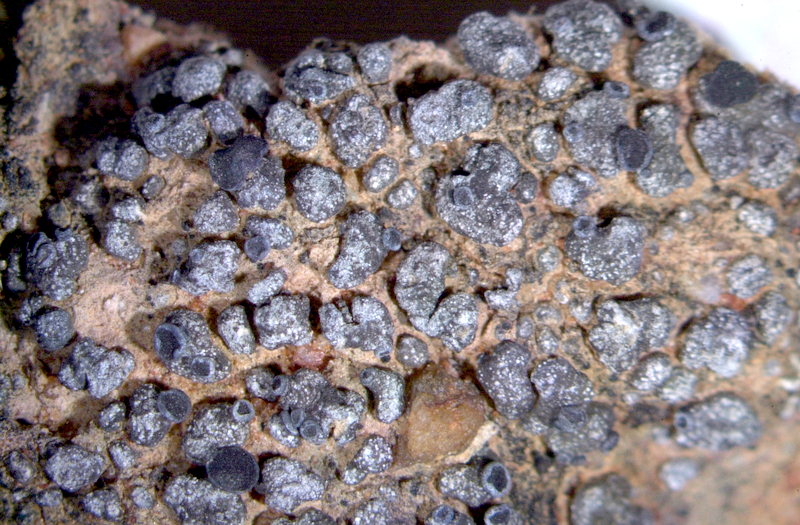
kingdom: Fungi
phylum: Ascomycota
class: Lecanoromycetes
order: Lecanorales
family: Ramalinaceae
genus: Bibbya
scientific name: Bibbya australis
